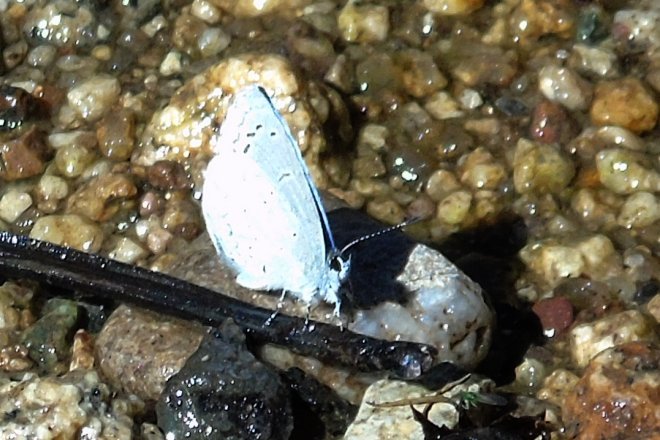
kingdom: Animalia
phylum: Arthropoda
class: Insecta
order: Lepidoptera
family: Lycaenidae
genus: Celastrina
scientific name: Celastrina ladon
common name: Spring Azure
